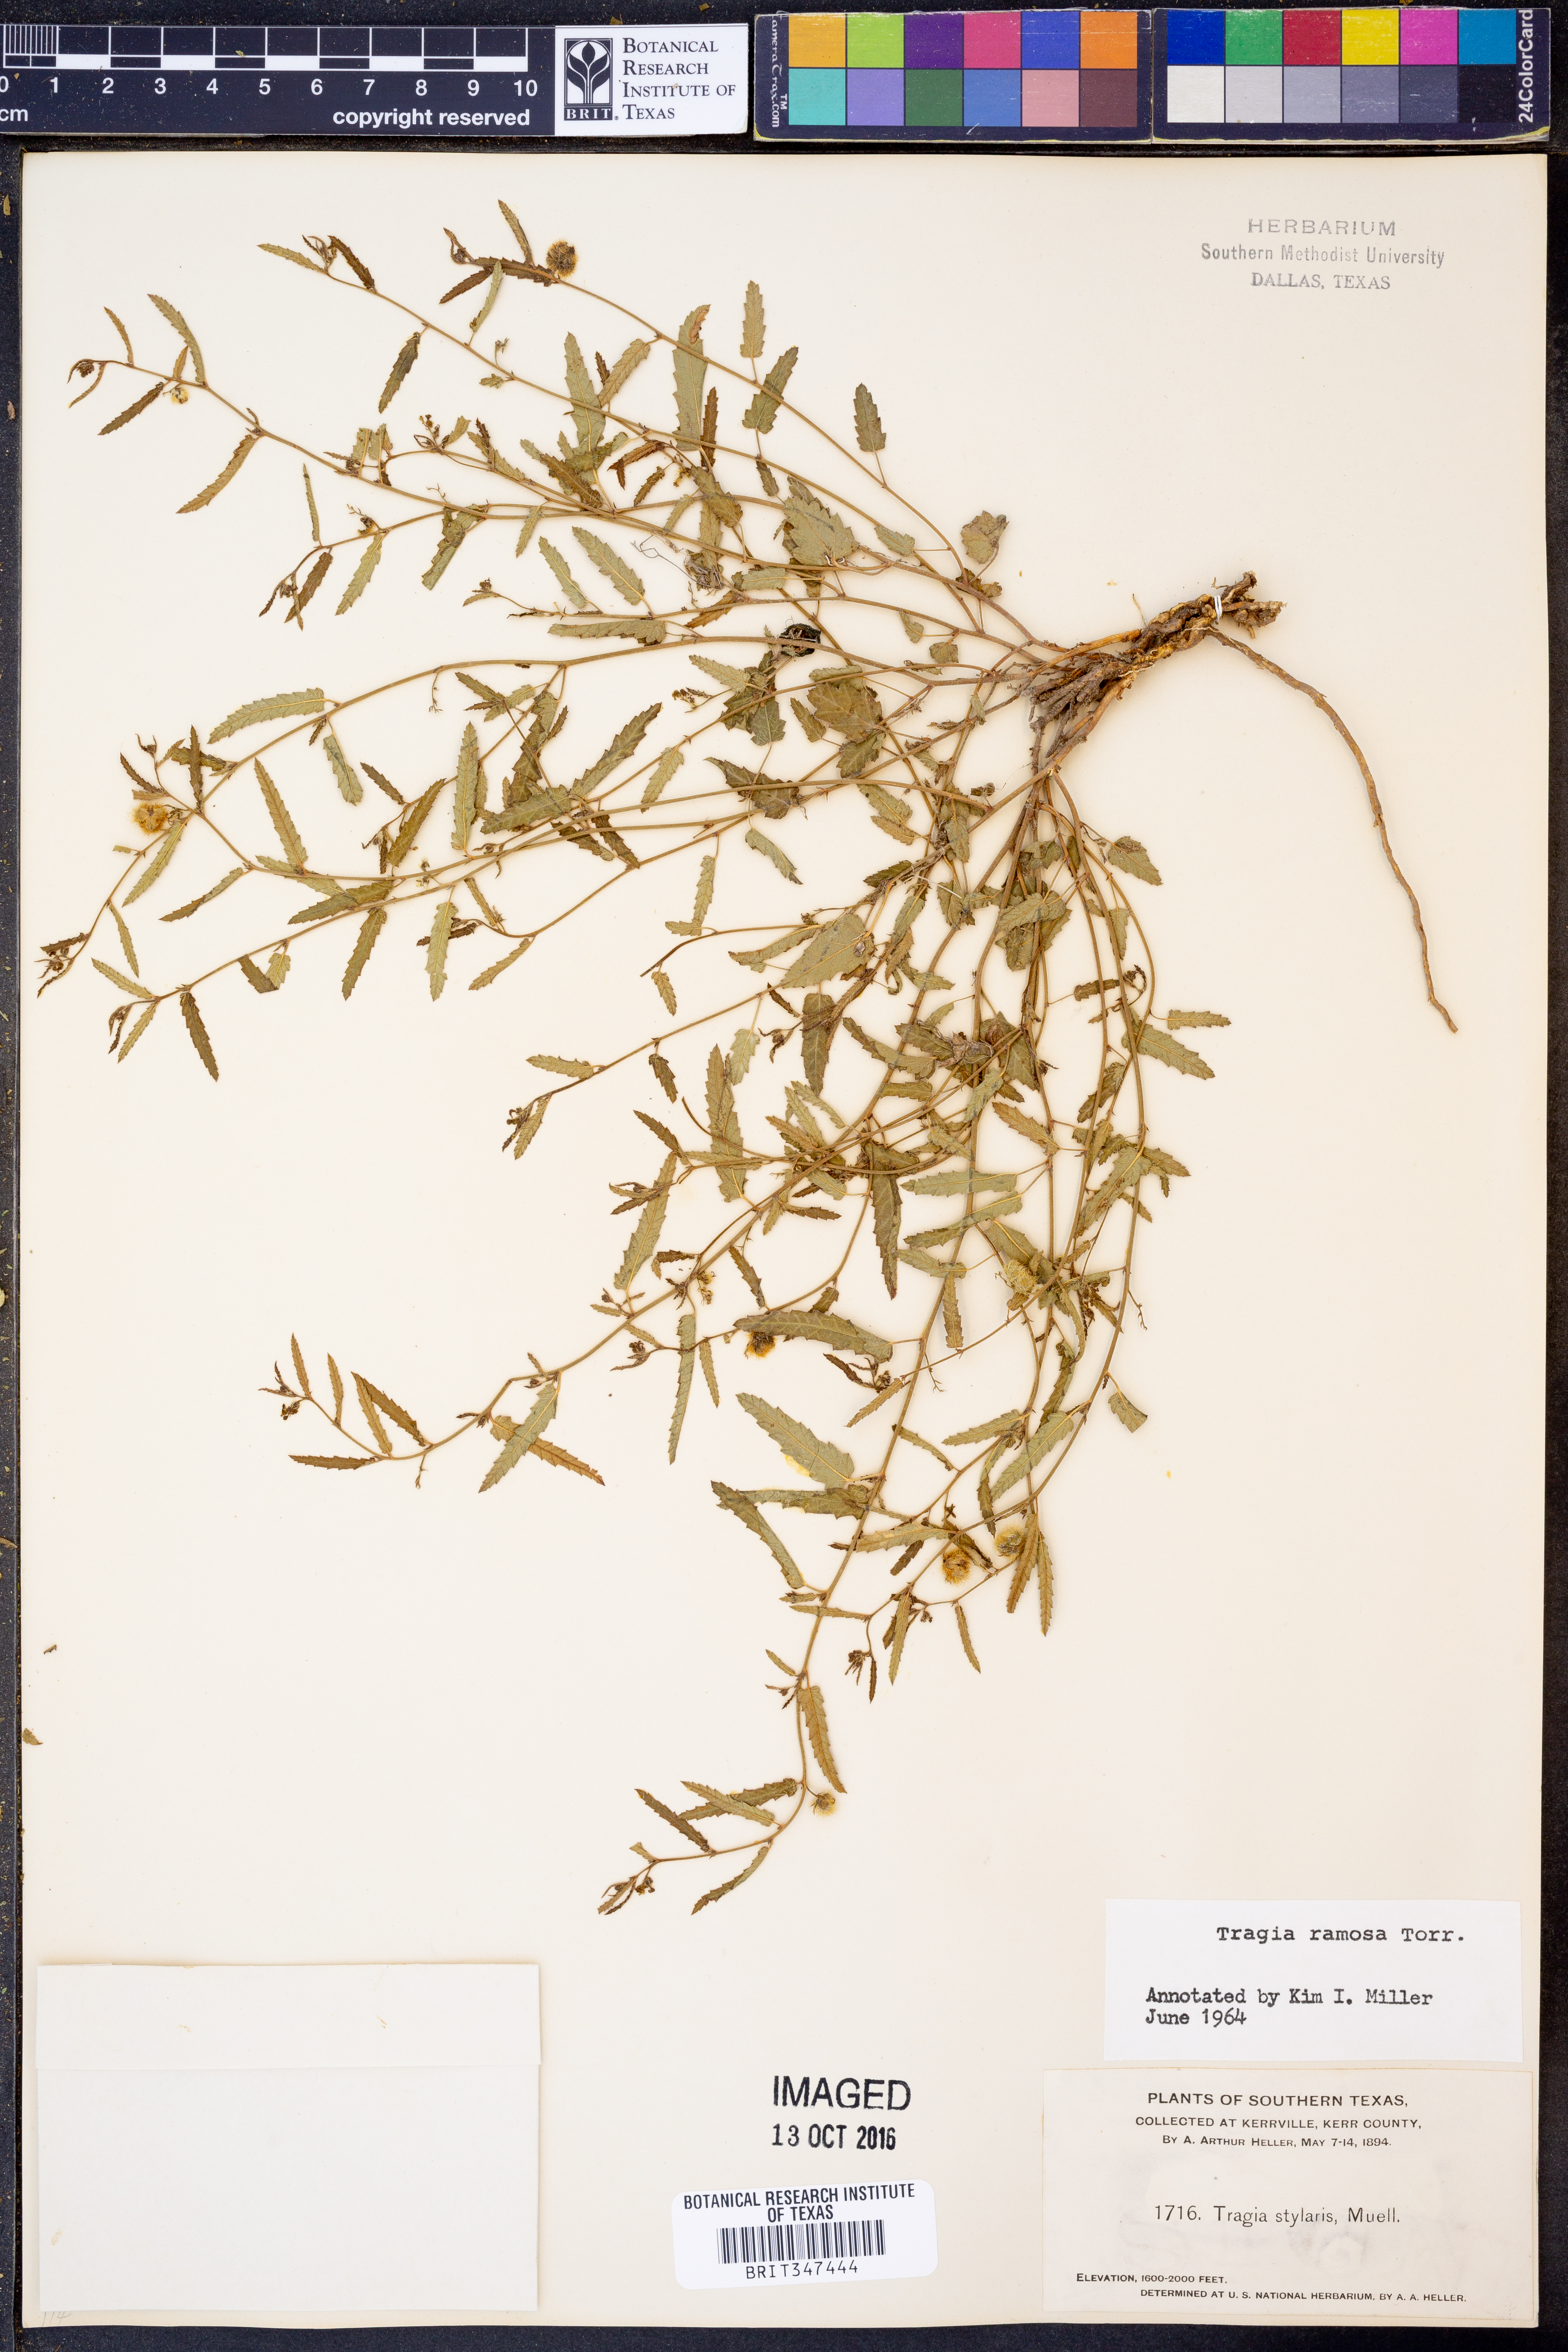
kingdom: Plantae
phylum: Tracheophyta
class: Magnoliopsida
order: Malpighiales
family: Euphorbiaceae
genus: Tragia
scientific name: Tragia ramosa
